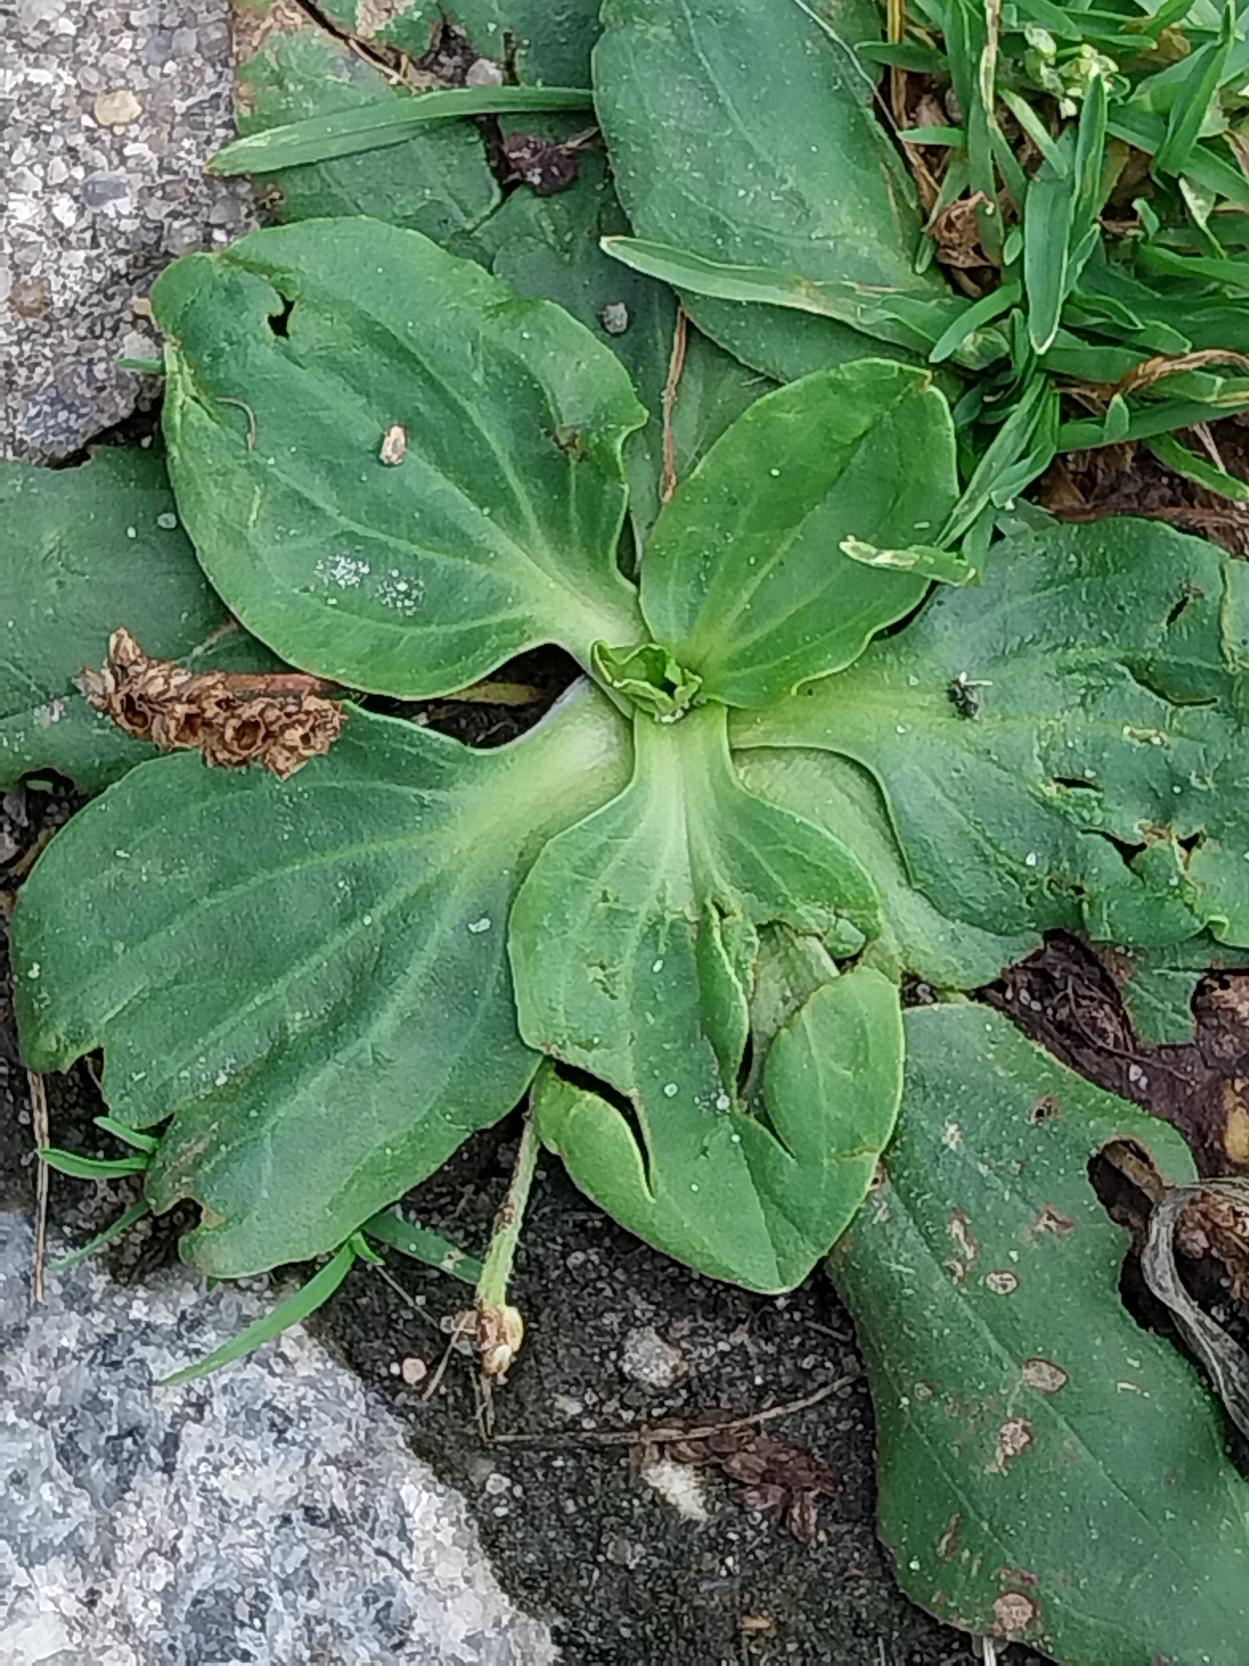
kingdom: Plantae
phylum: Tracheophyta
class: Magnoliopsida
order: Lamiales
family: Plantaginaceae
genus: Plantago
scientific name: Plantago major
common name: Glat vejbred
